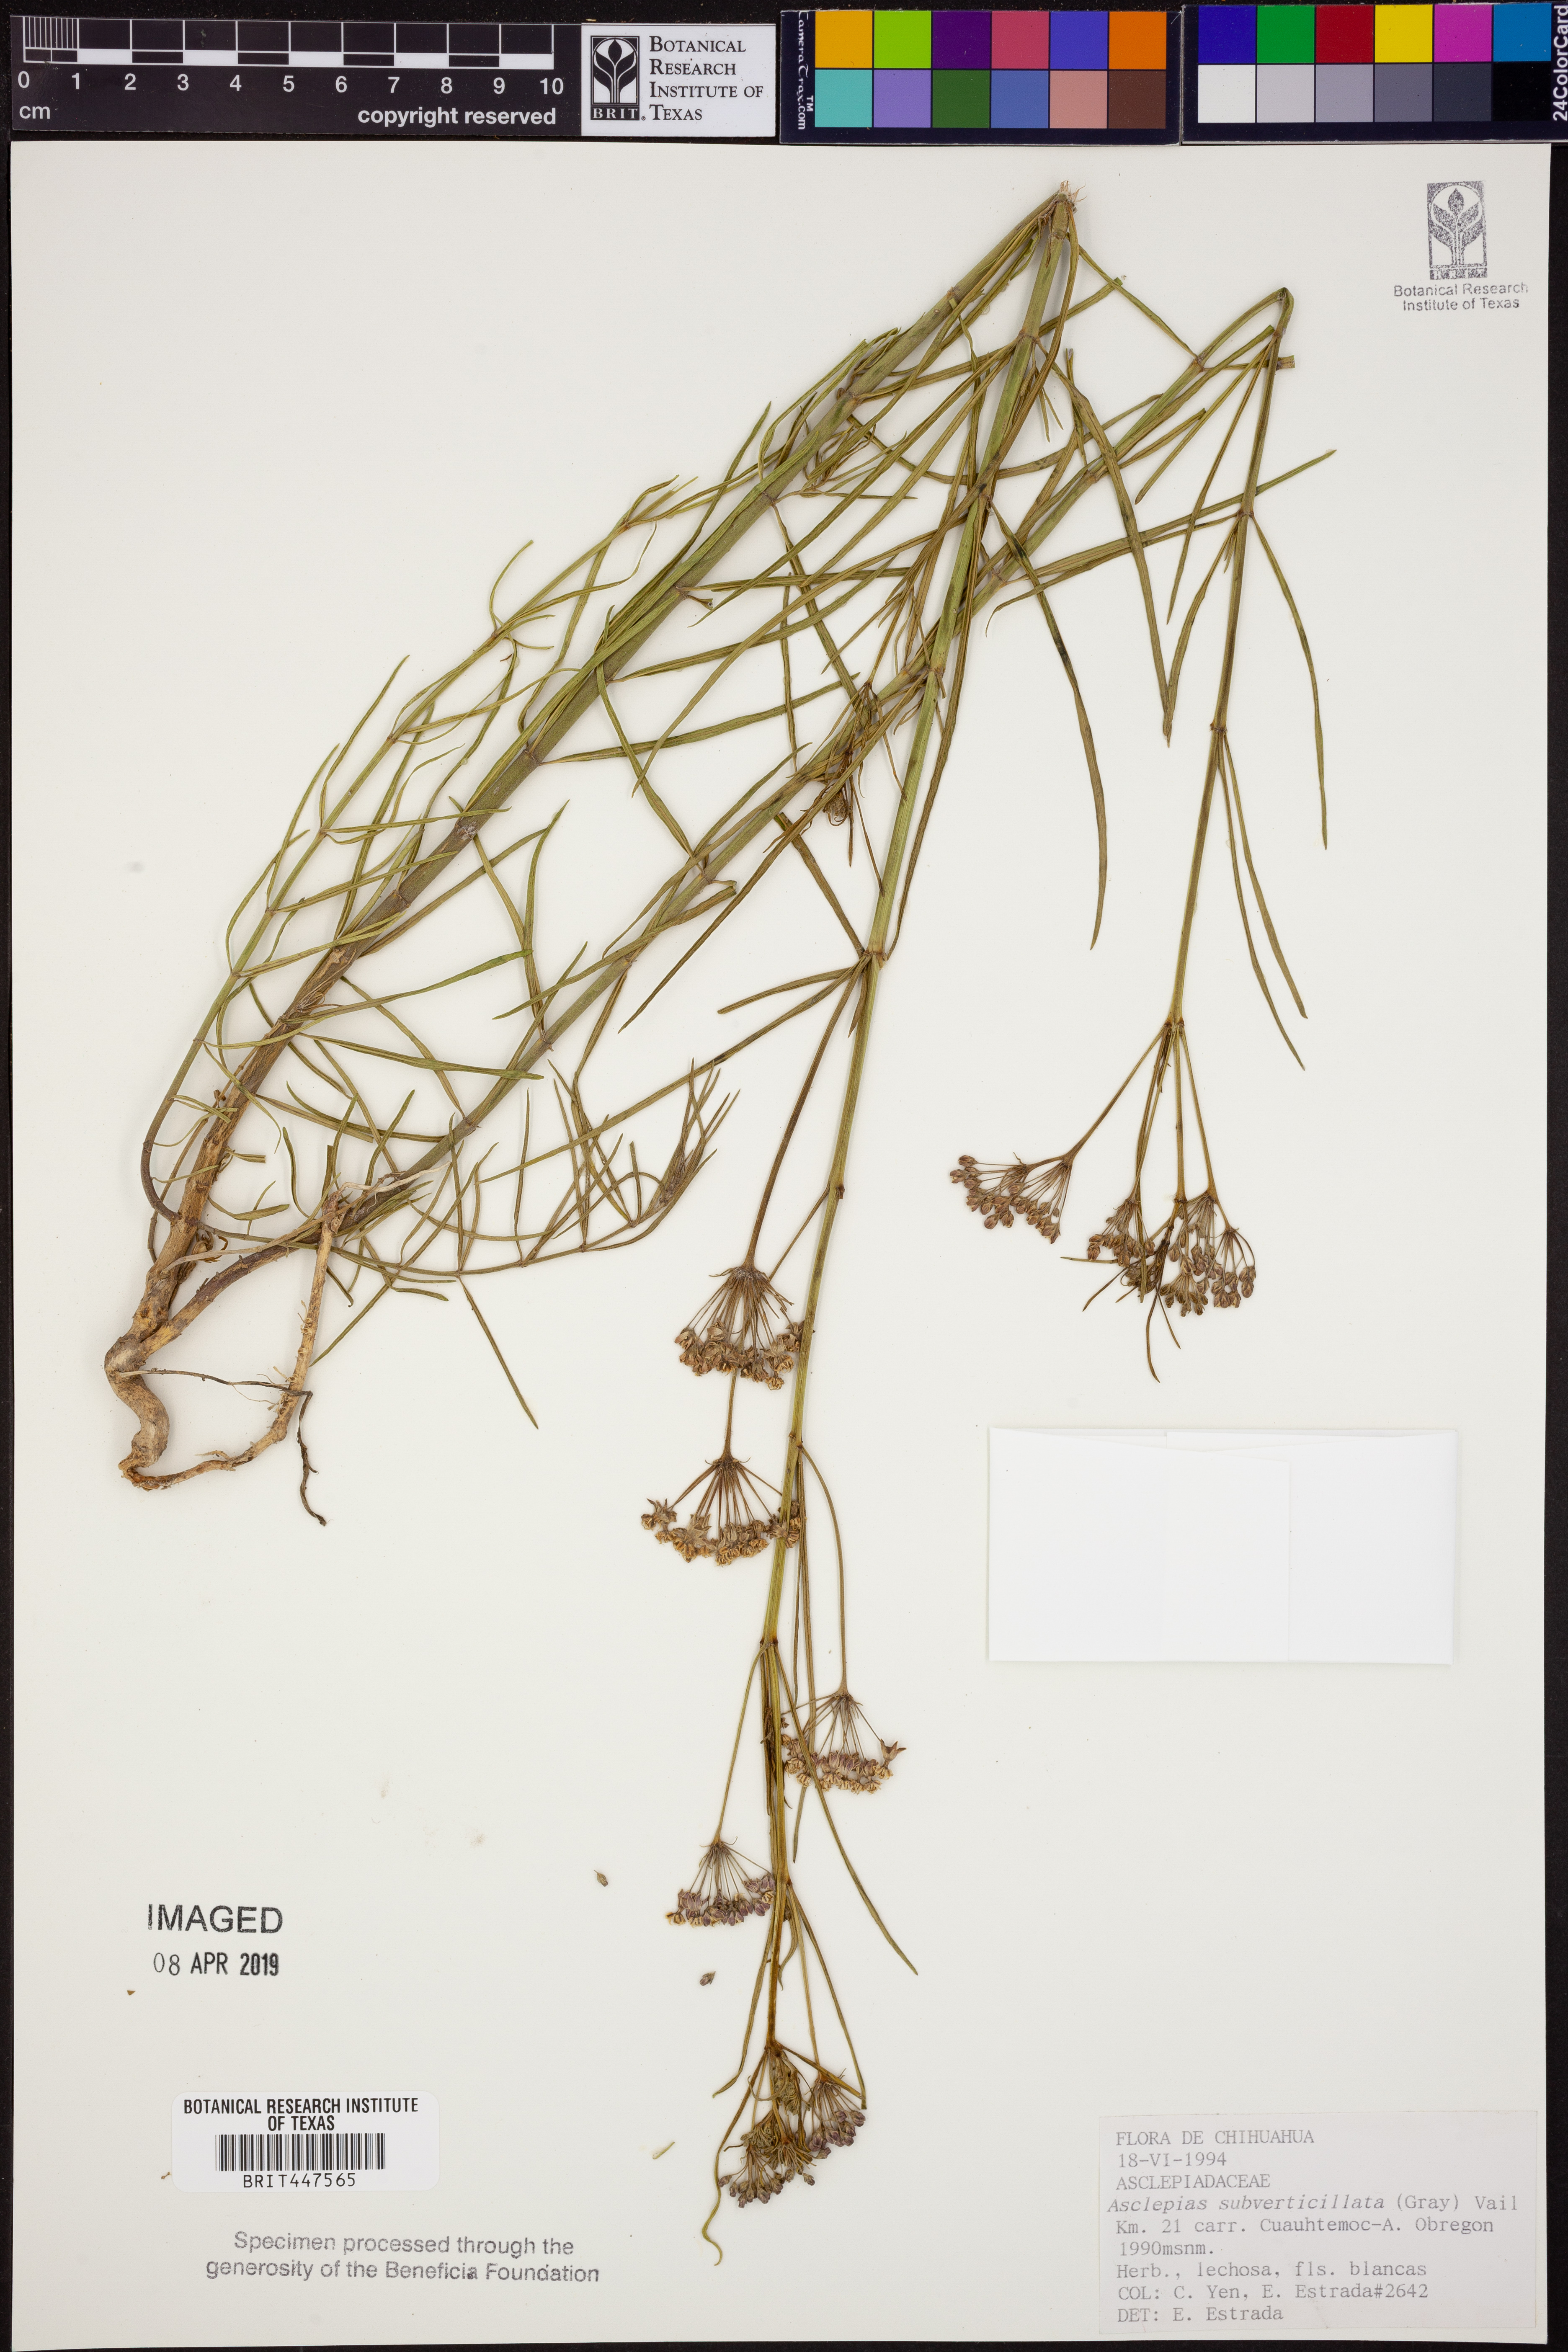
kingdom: Plantae
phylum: Tracheophyta
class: Magnoliopsida
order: Gentianales
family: Apocynaceae
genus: Asclepias
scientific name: Asclepias subverticillata
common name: Horsetail milkweed
